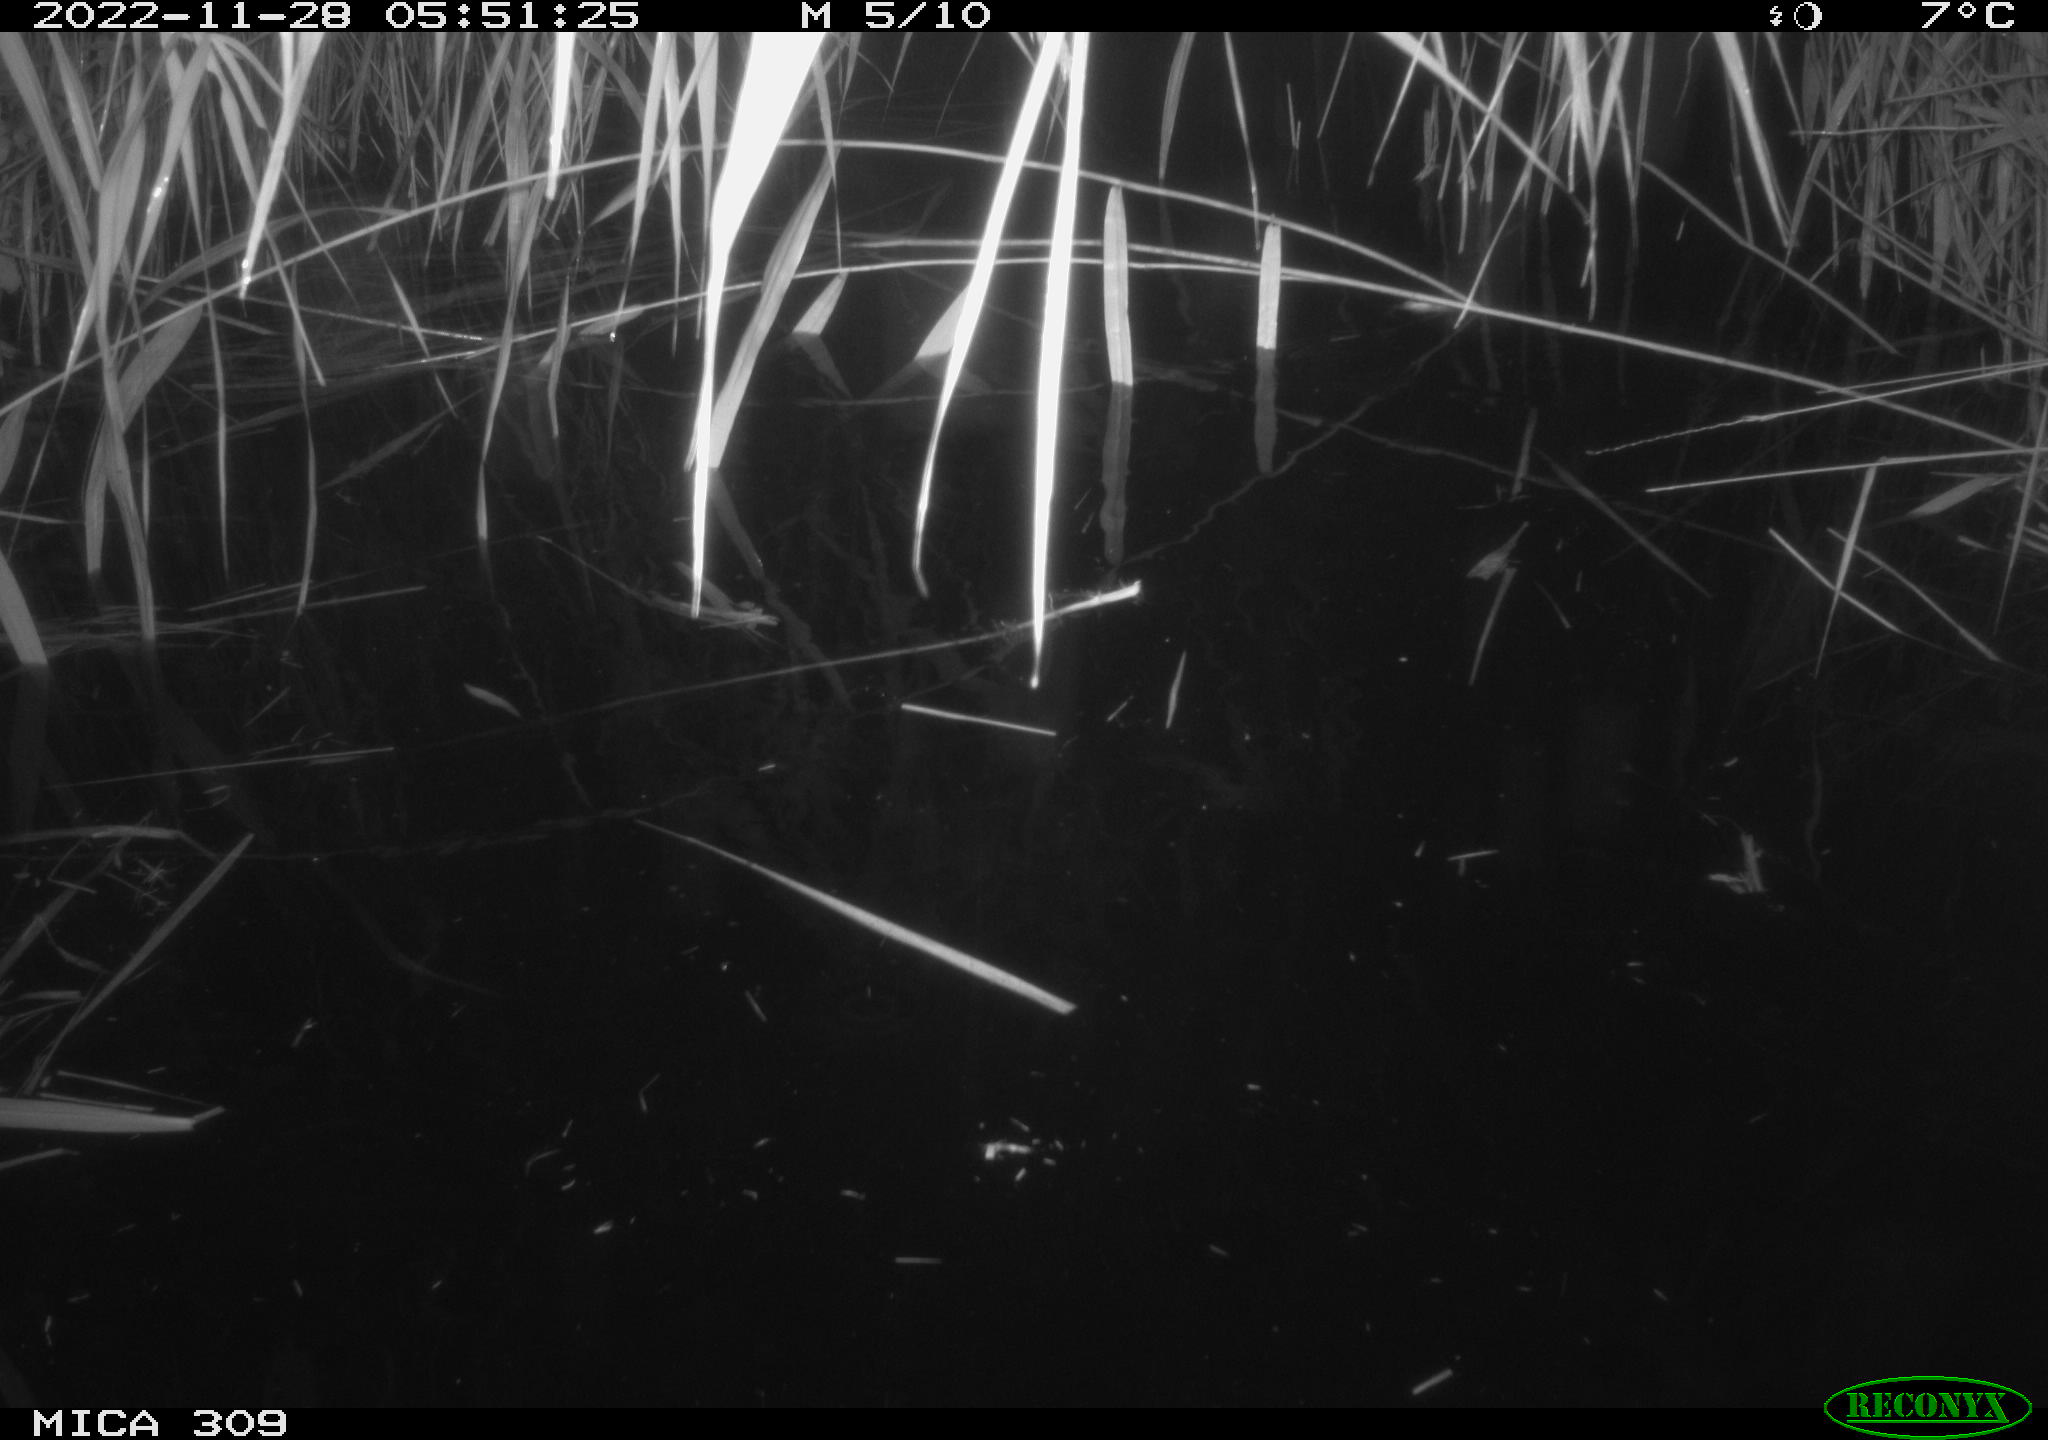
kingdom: Animalia
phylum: Chordata
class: Mammalia
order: Rodentia
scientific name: Rodentia
